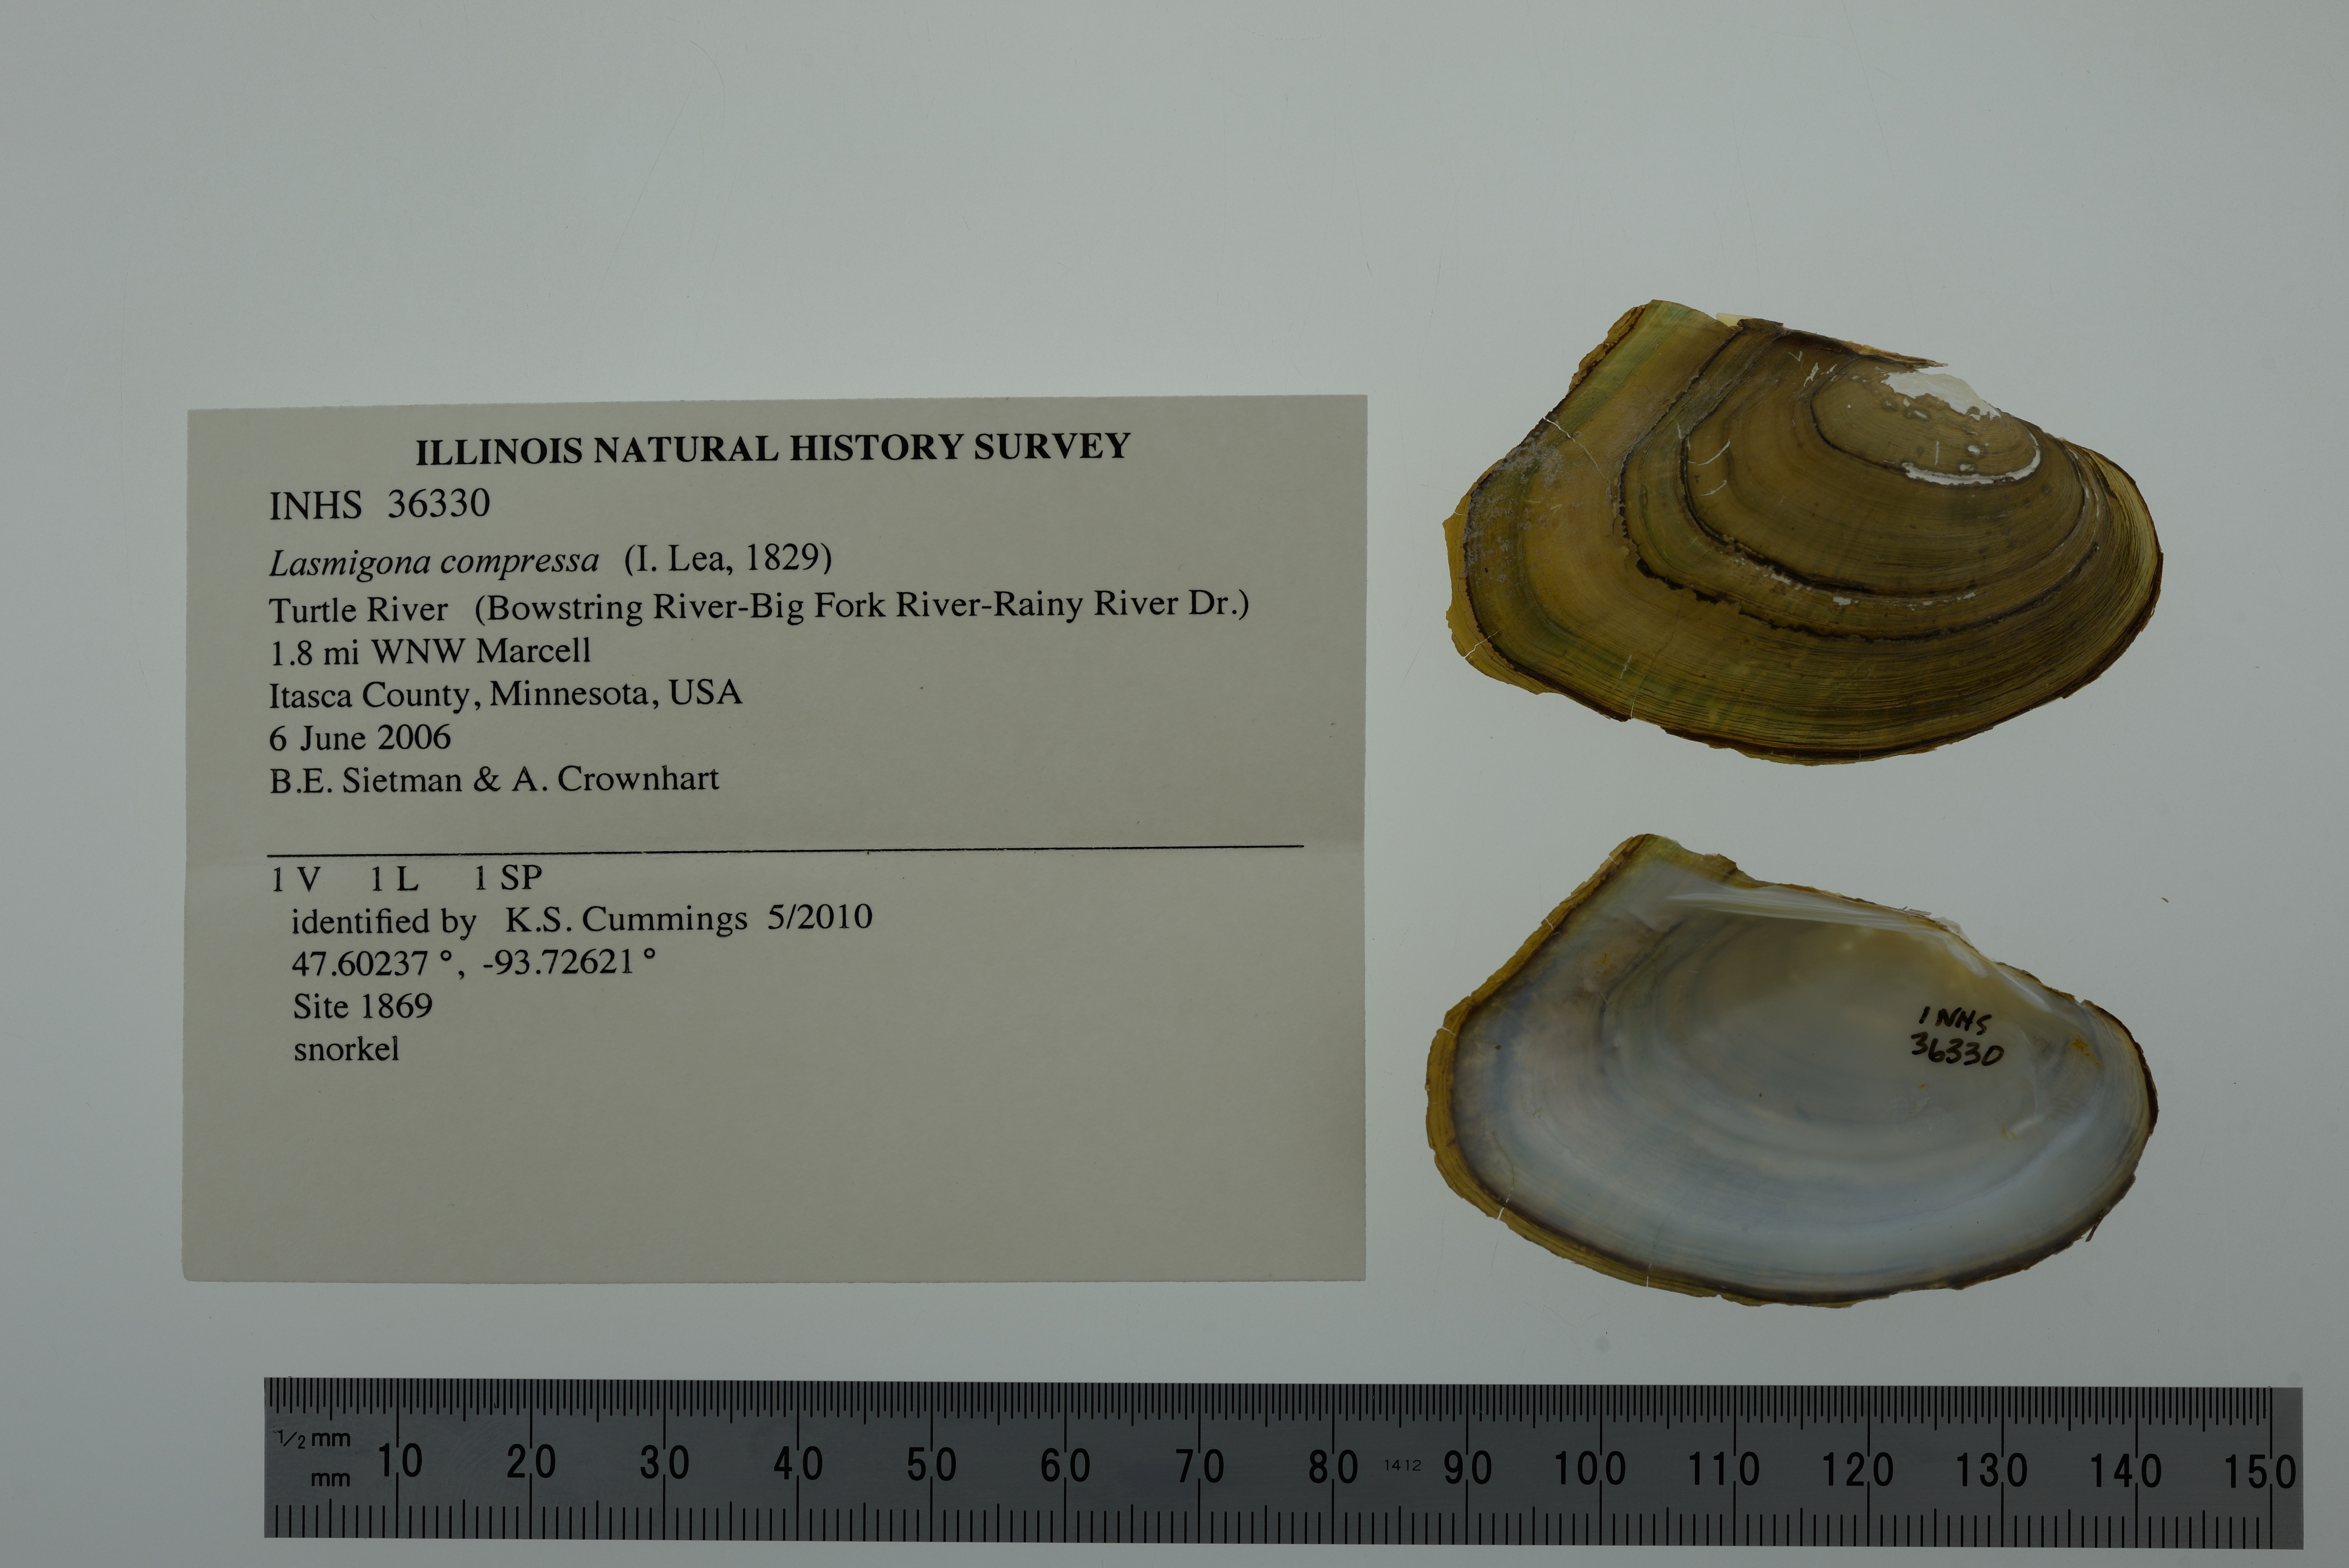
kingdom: Animalia
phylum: Mollusca
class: Bivalvia
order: Unionida
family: Unionidae
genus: Lasmigona
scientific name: Lasmigona compressa
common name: Creek heelsplitter
